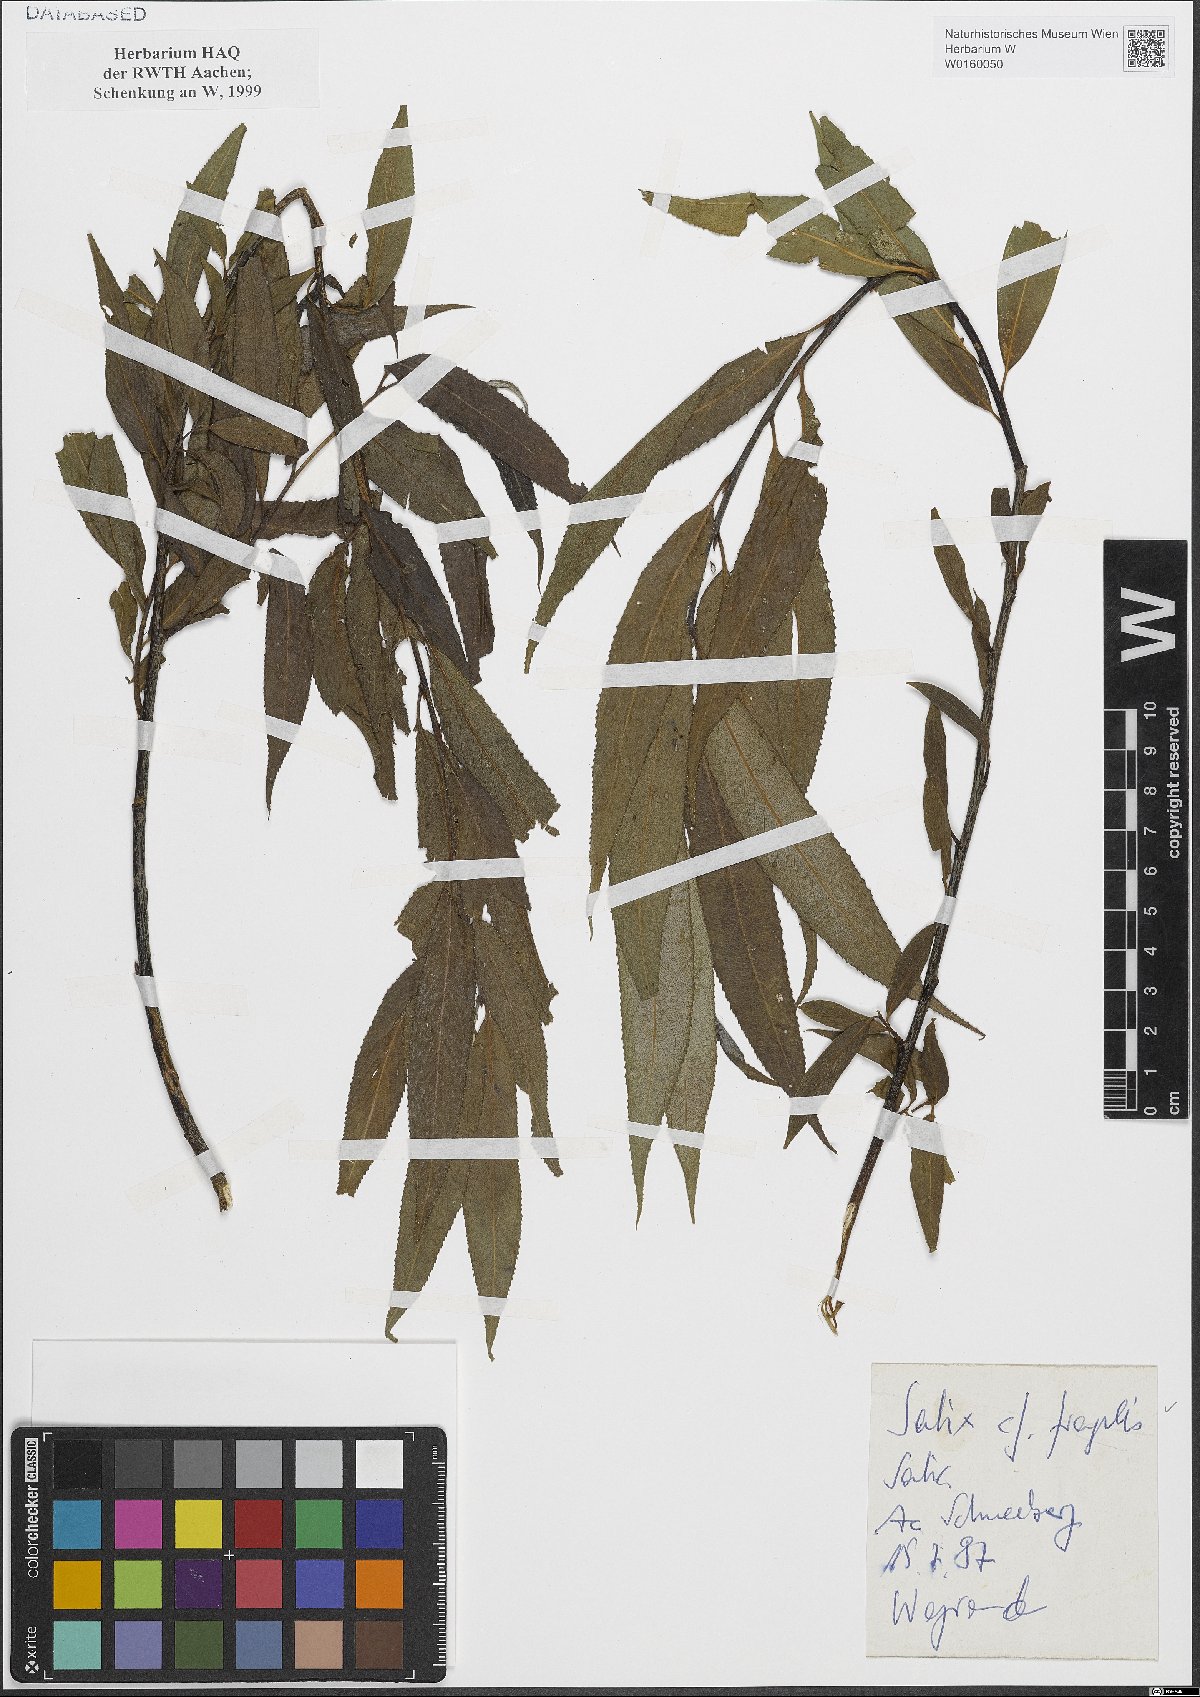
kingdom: Plantae
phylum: Tracheophyta
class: Magnoliopsida
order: Malpighiales
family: Salicaceae
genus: Salix
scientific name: Salix fragilis
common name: Crack willow
